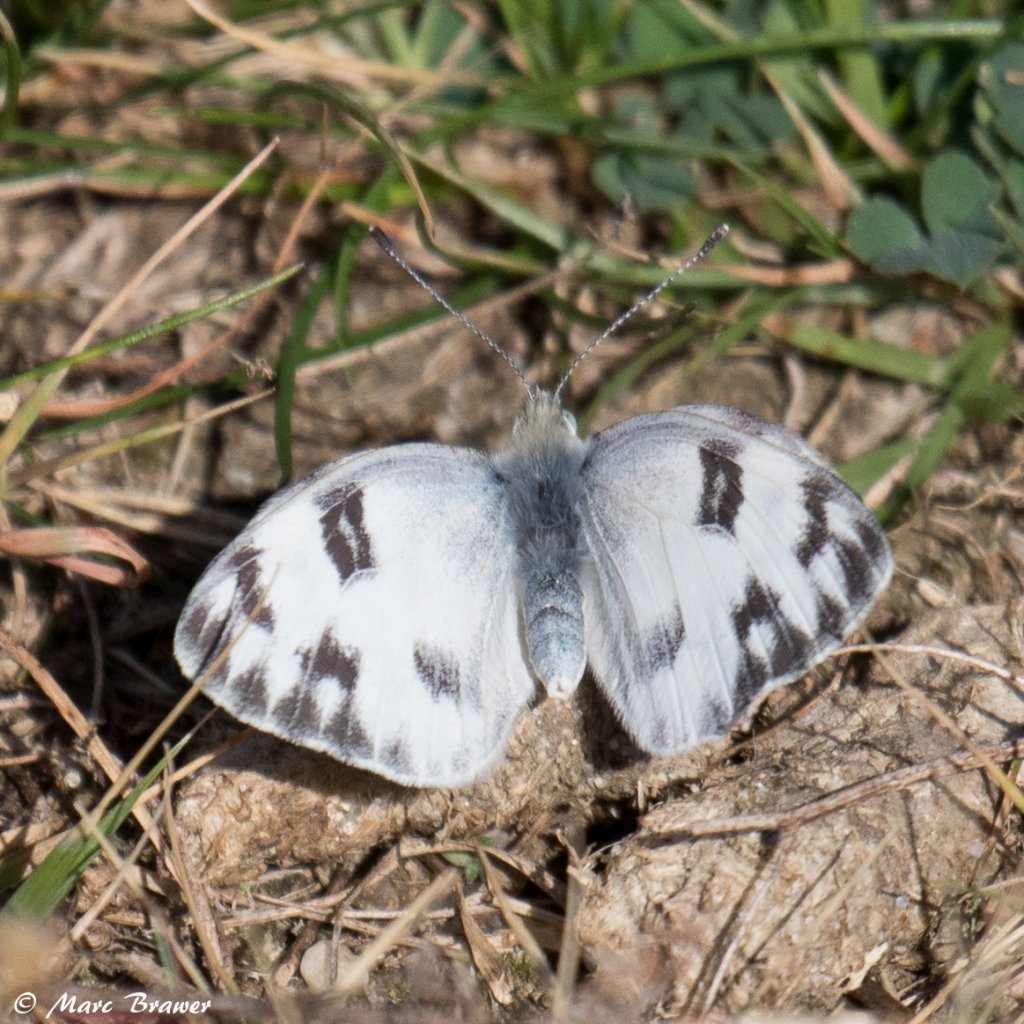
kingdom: Animalia
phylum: Arthropoda
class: Insecta
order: Lepidoptera
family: Pieridae
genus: Pontia
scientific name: Pontia protodice
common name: Checkered White
